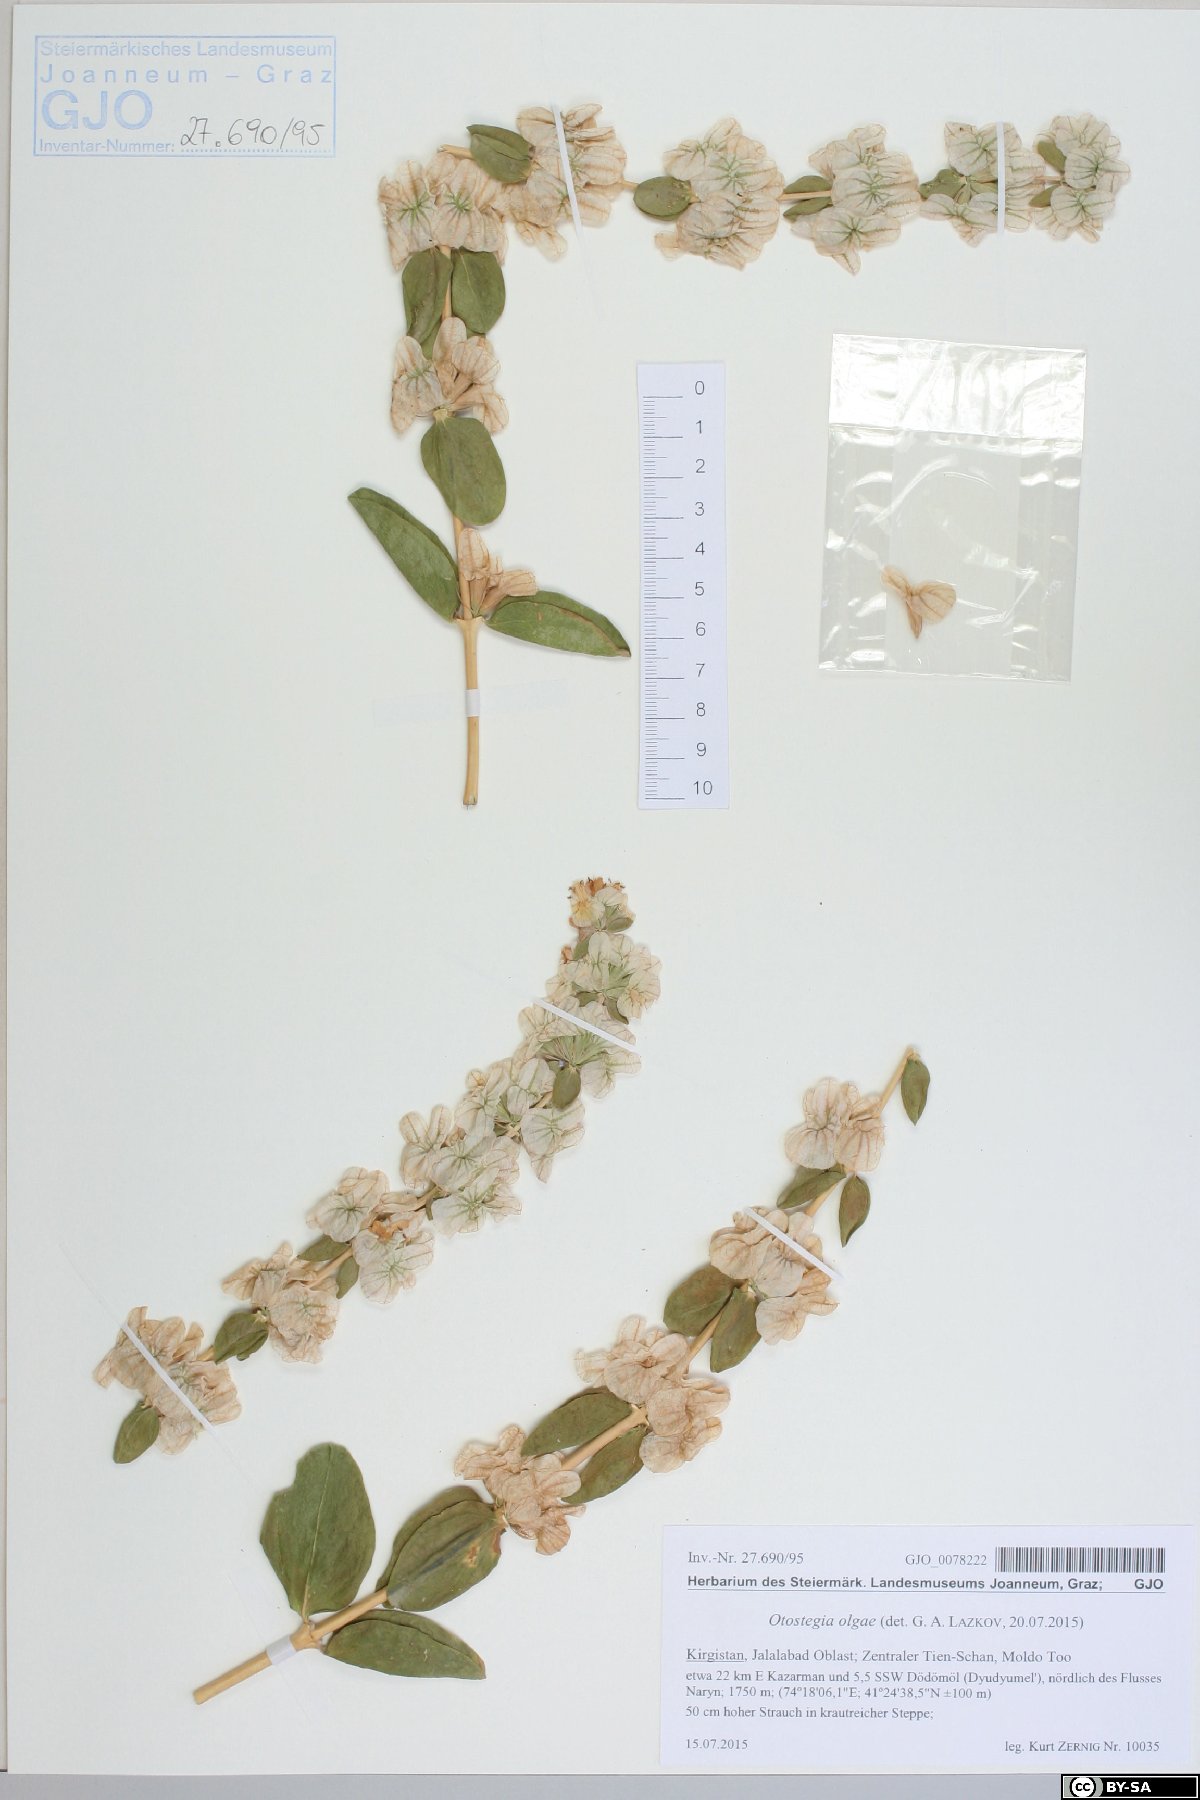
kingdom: Plantae
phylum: Tracheophyta
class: Magnoliopsida
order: Lamiales
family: Lamiaceae
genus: Moluccella
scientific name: Moluccella olgae
